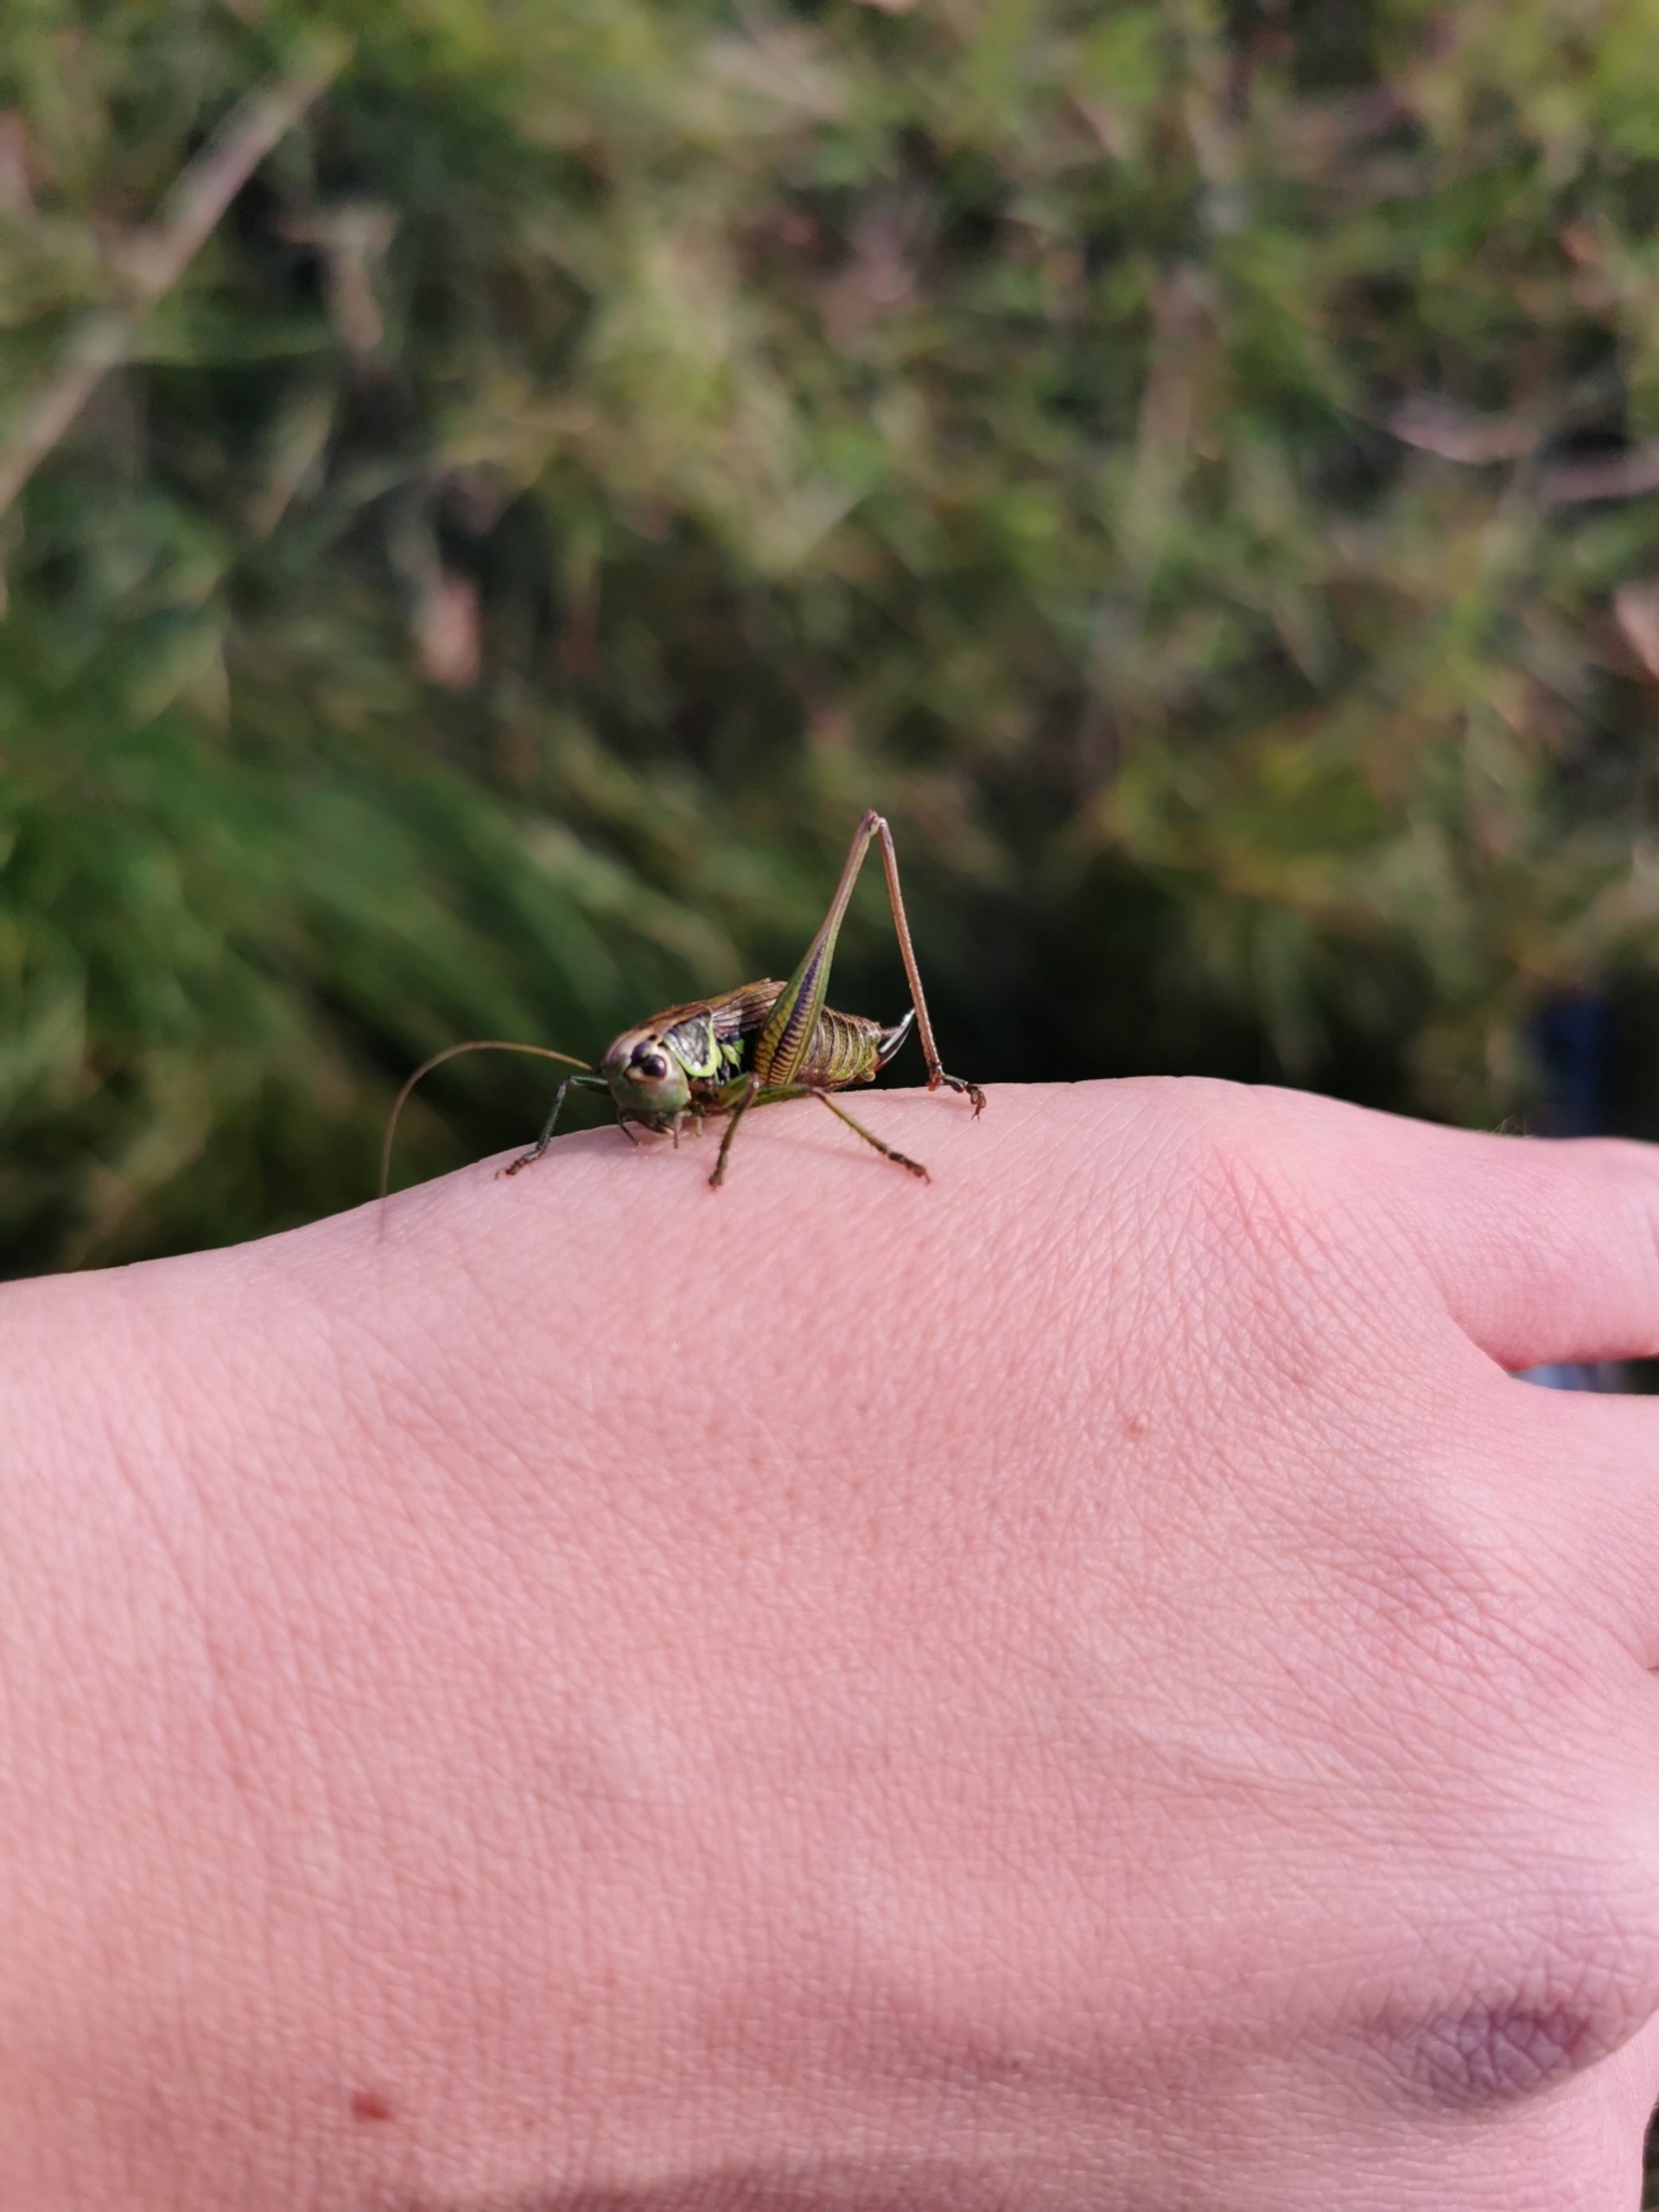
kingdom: Animalia
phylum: Arthropoda
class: Insecta
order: Orthoptera
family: Tettigoniidae
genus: Roeseliana
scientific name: Roeseliana roeselii
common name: Cikadegræshoppe
